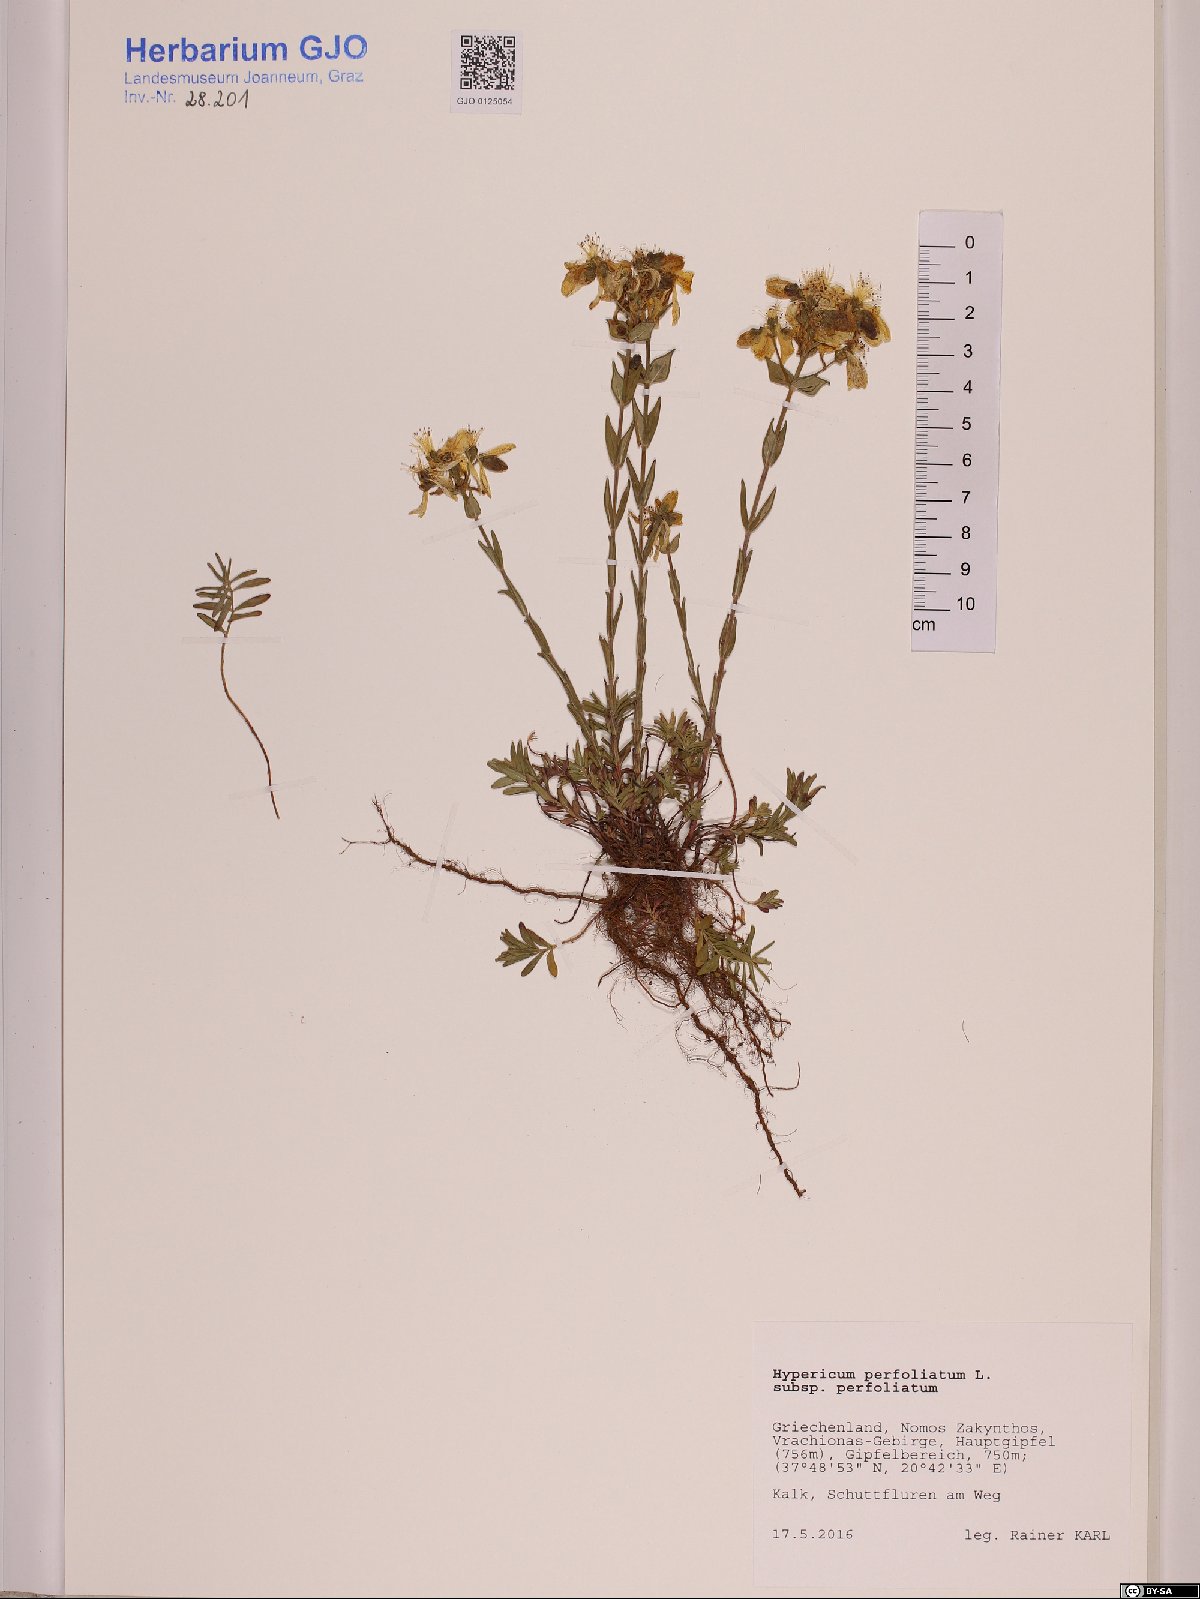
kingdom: Plantae
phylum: Tracheophyta
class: Magnoliopsida
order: Malpighiales
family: Hypericaceae
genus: Hypericum
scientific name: Hypericum perfoliatum
